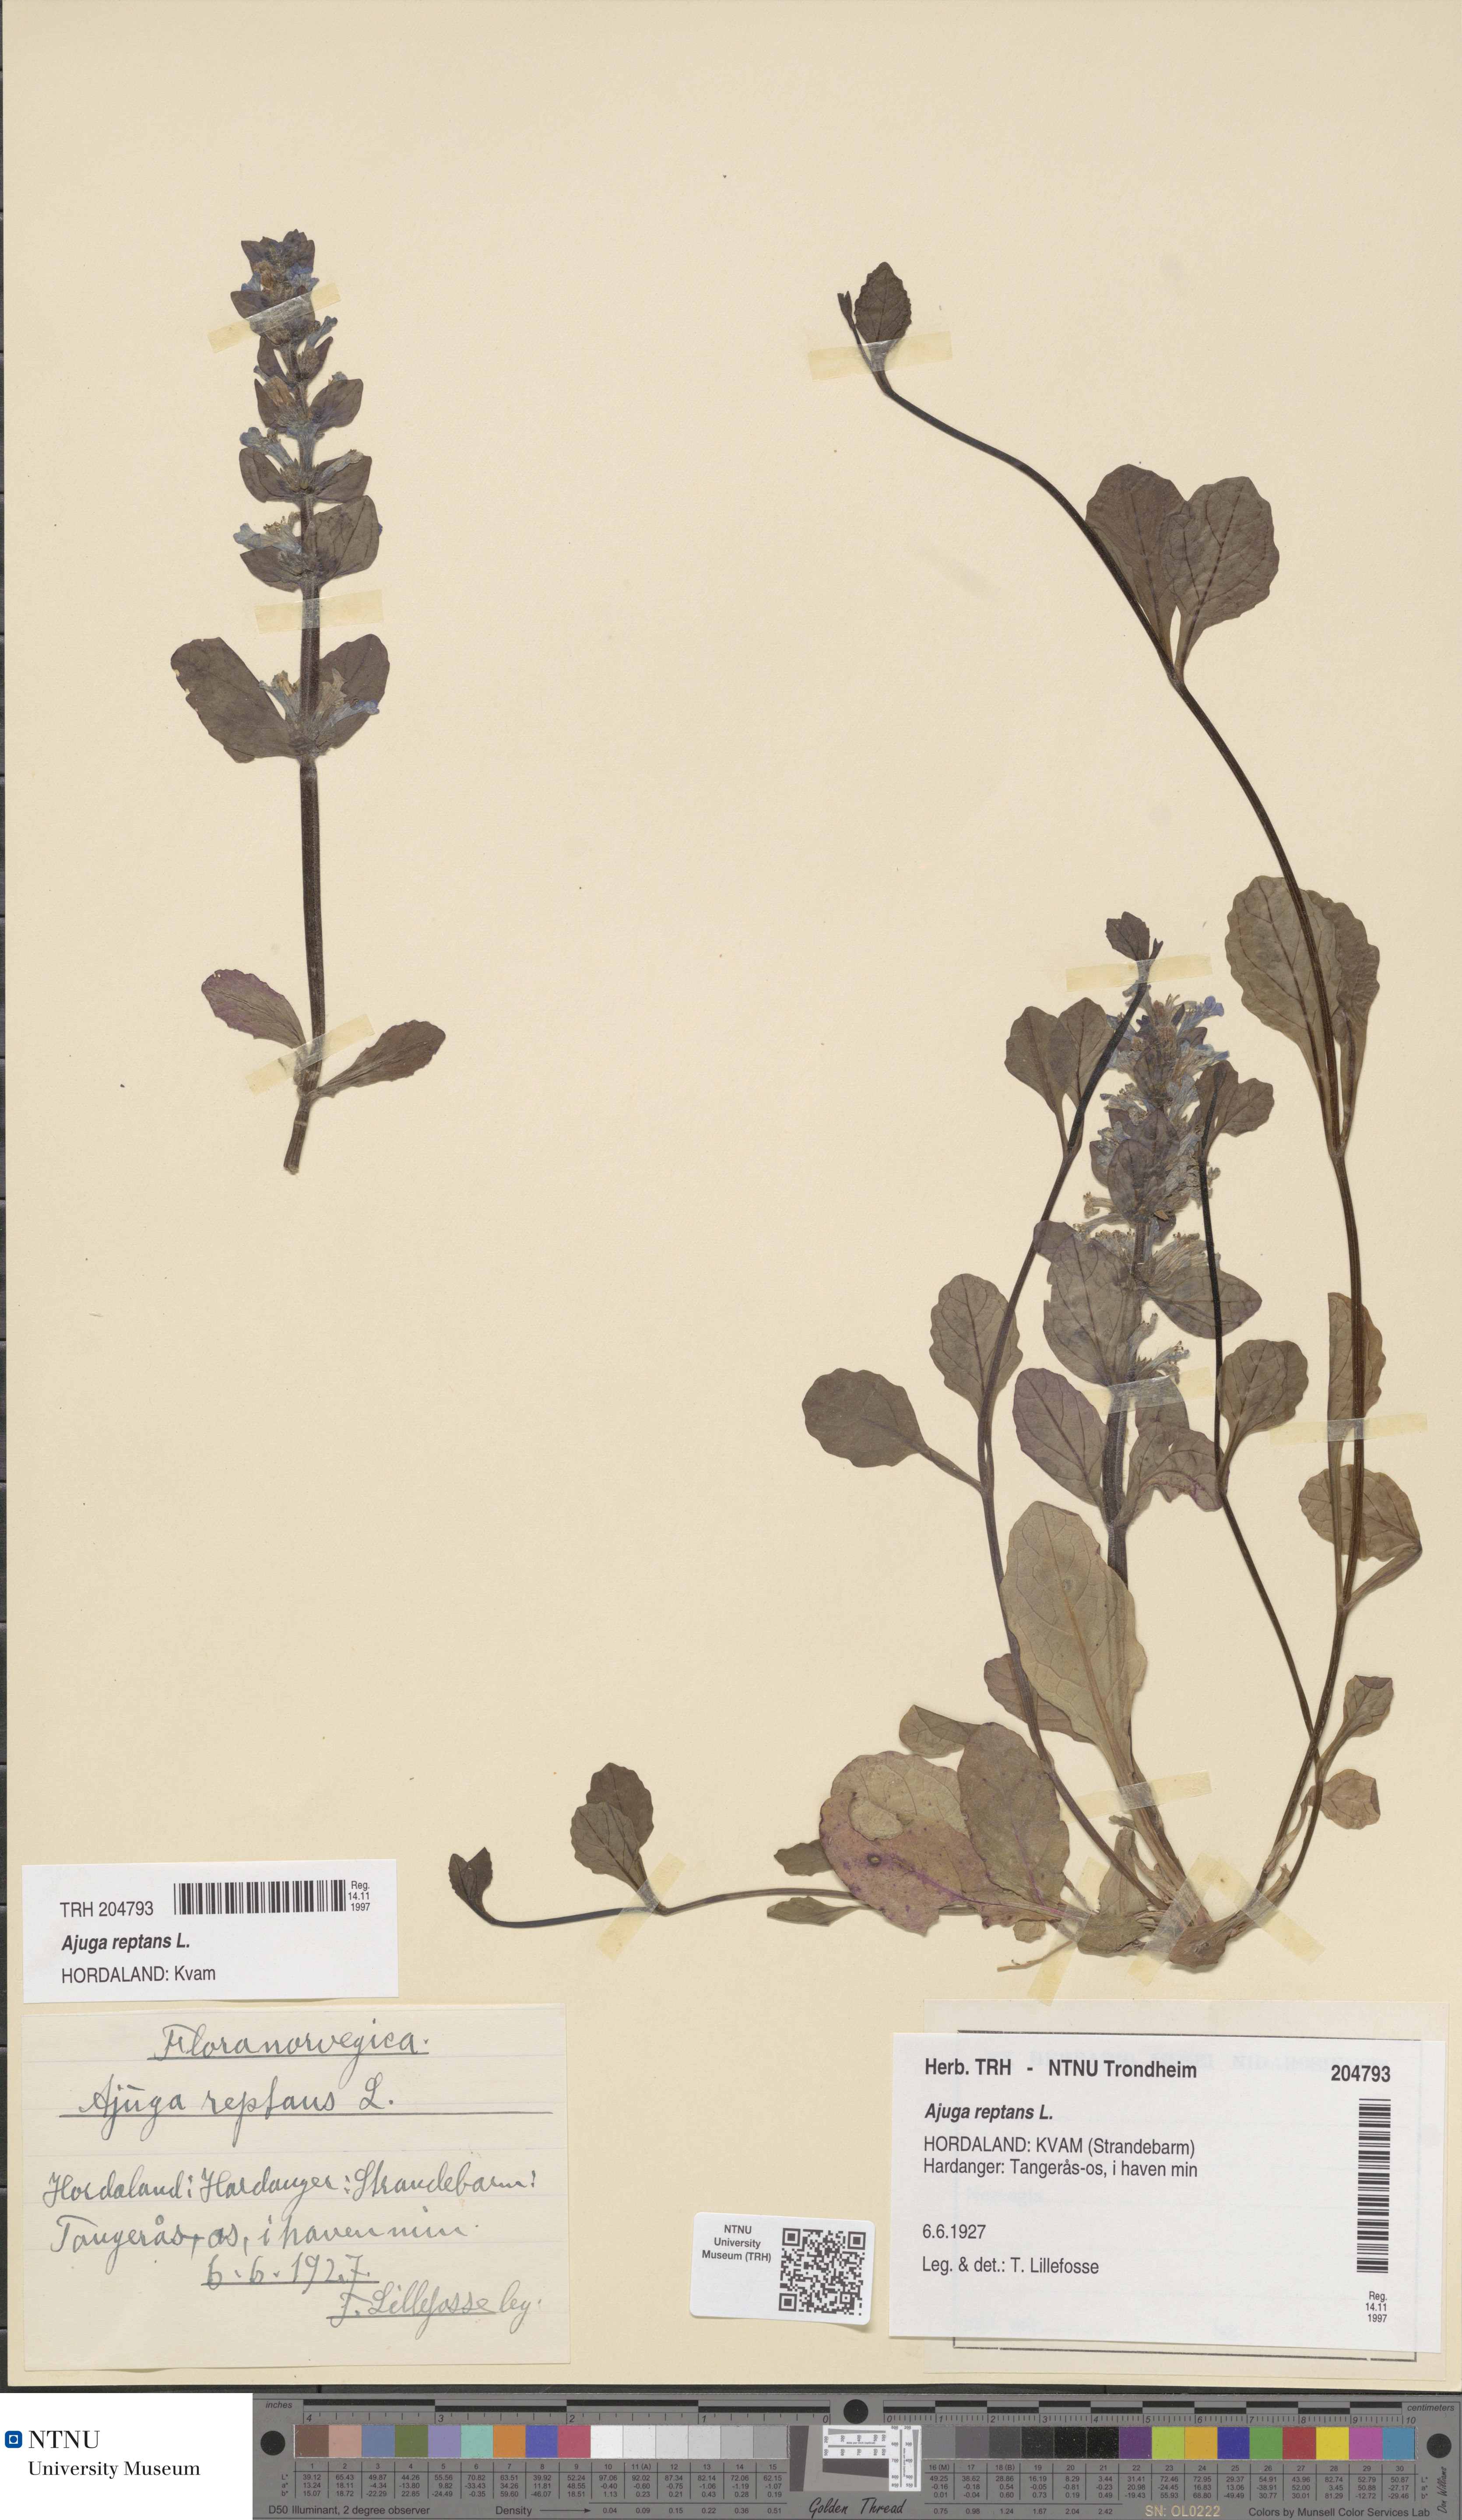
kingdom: Plantae
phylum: Tracheophyta
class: Magnoliopsida
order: Lamiales
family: Lamiaceae
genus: Ajuga
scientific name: Ajuga reptans
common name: Bugle
